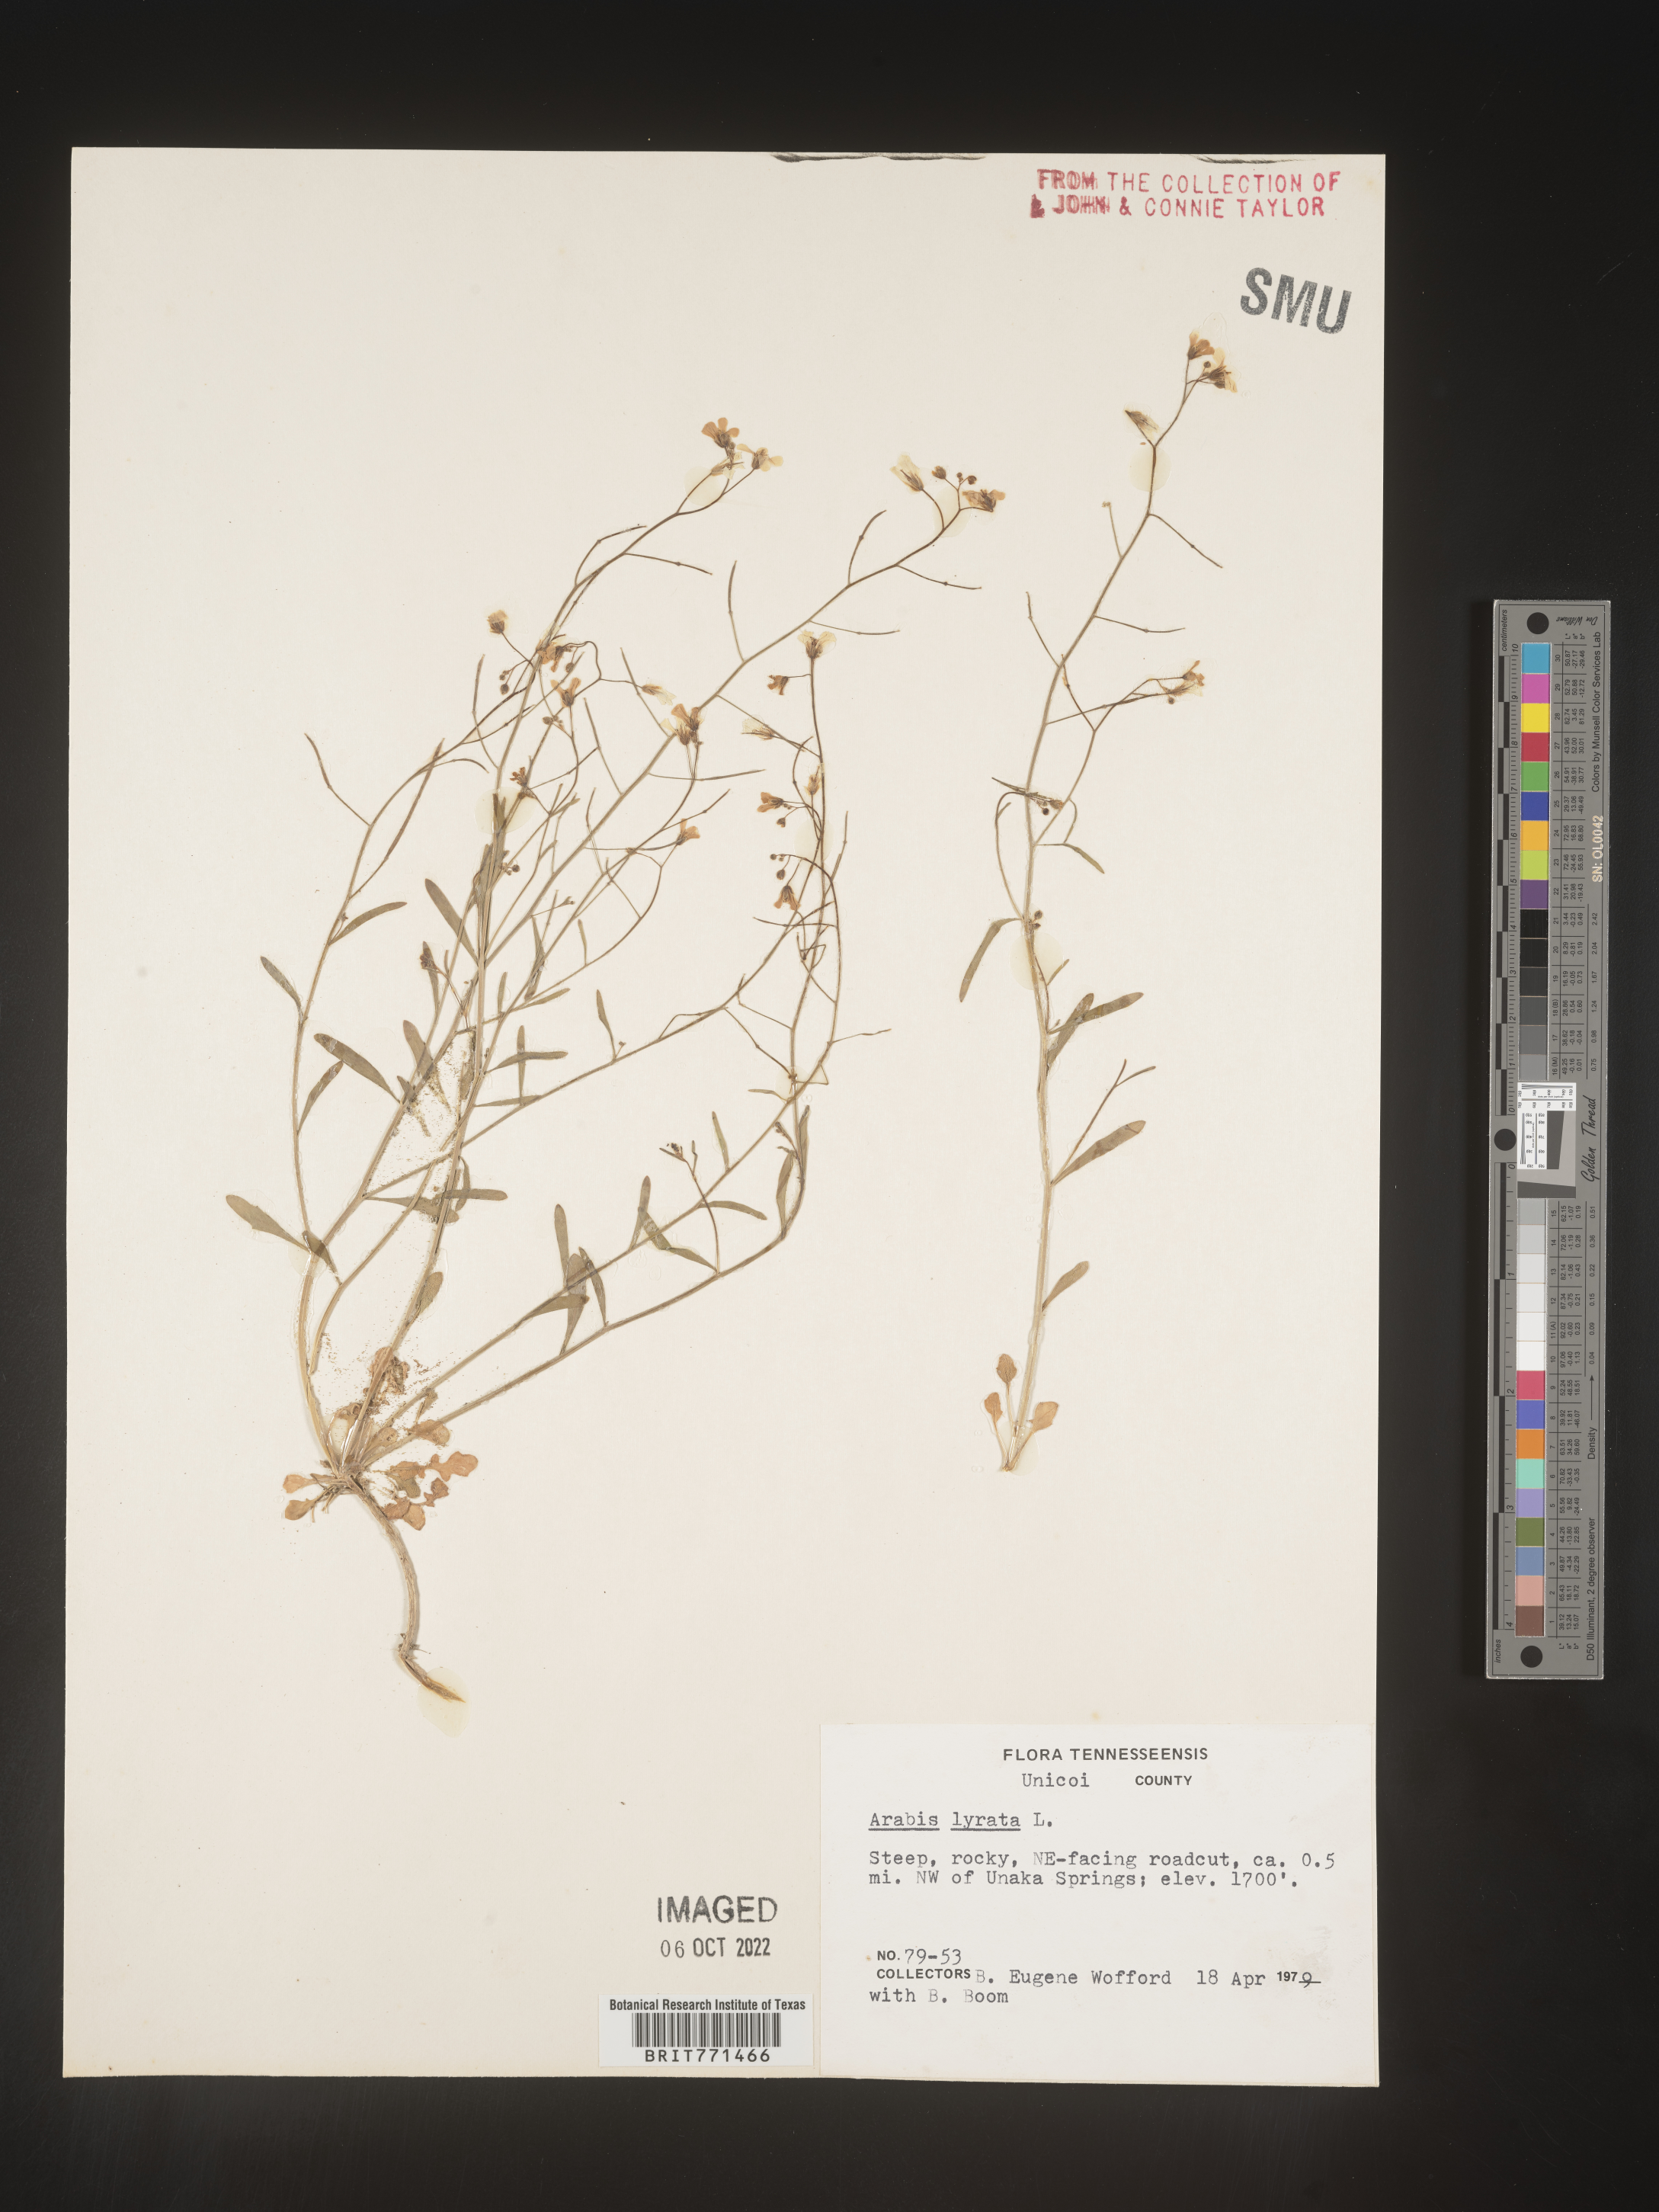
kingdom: Plantae
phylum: Tracheophyta
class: Magnoliopsida
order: Brassicales
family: Brassicaceae
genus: Arabidopsis
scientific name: Arabidopsis lyrata
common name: Lyrate rockcress
